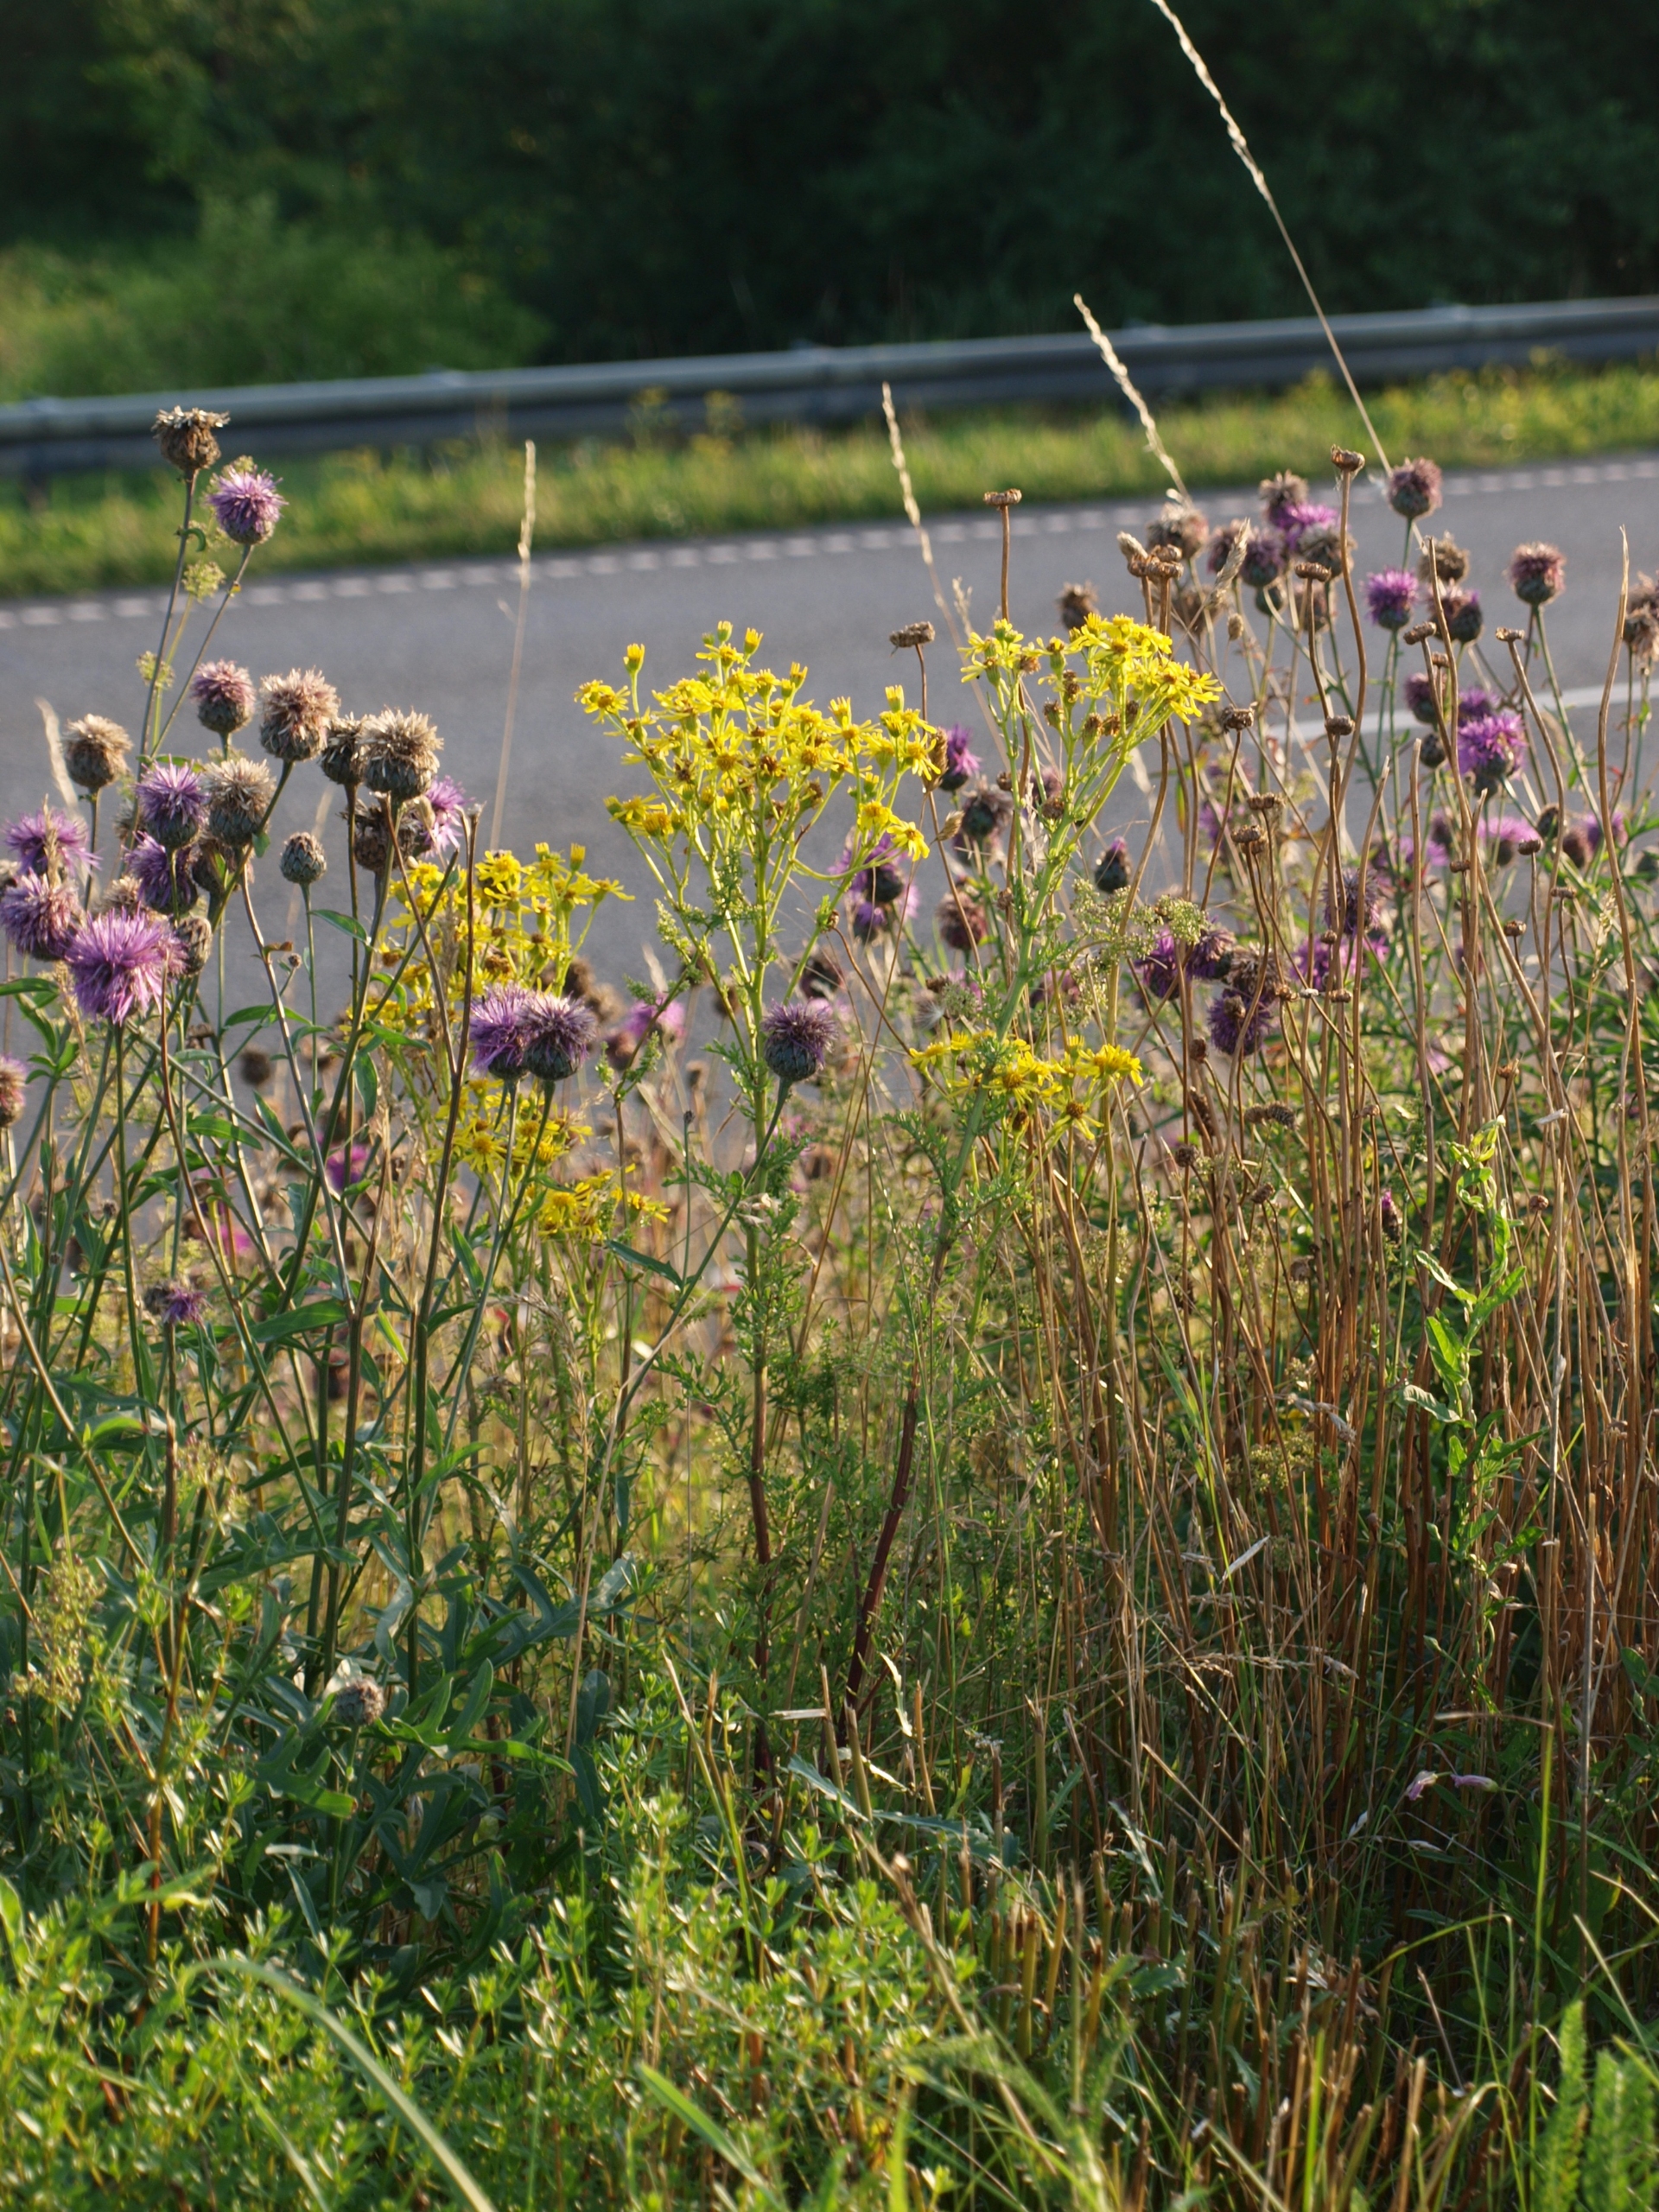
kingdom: Plantae
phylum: Tracheophyta
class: Magnoliopsida
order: Asterales
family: Asteraceae
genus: Jacobaea
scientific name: Jacobaea vulgaris
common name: Eng-brandbæger
